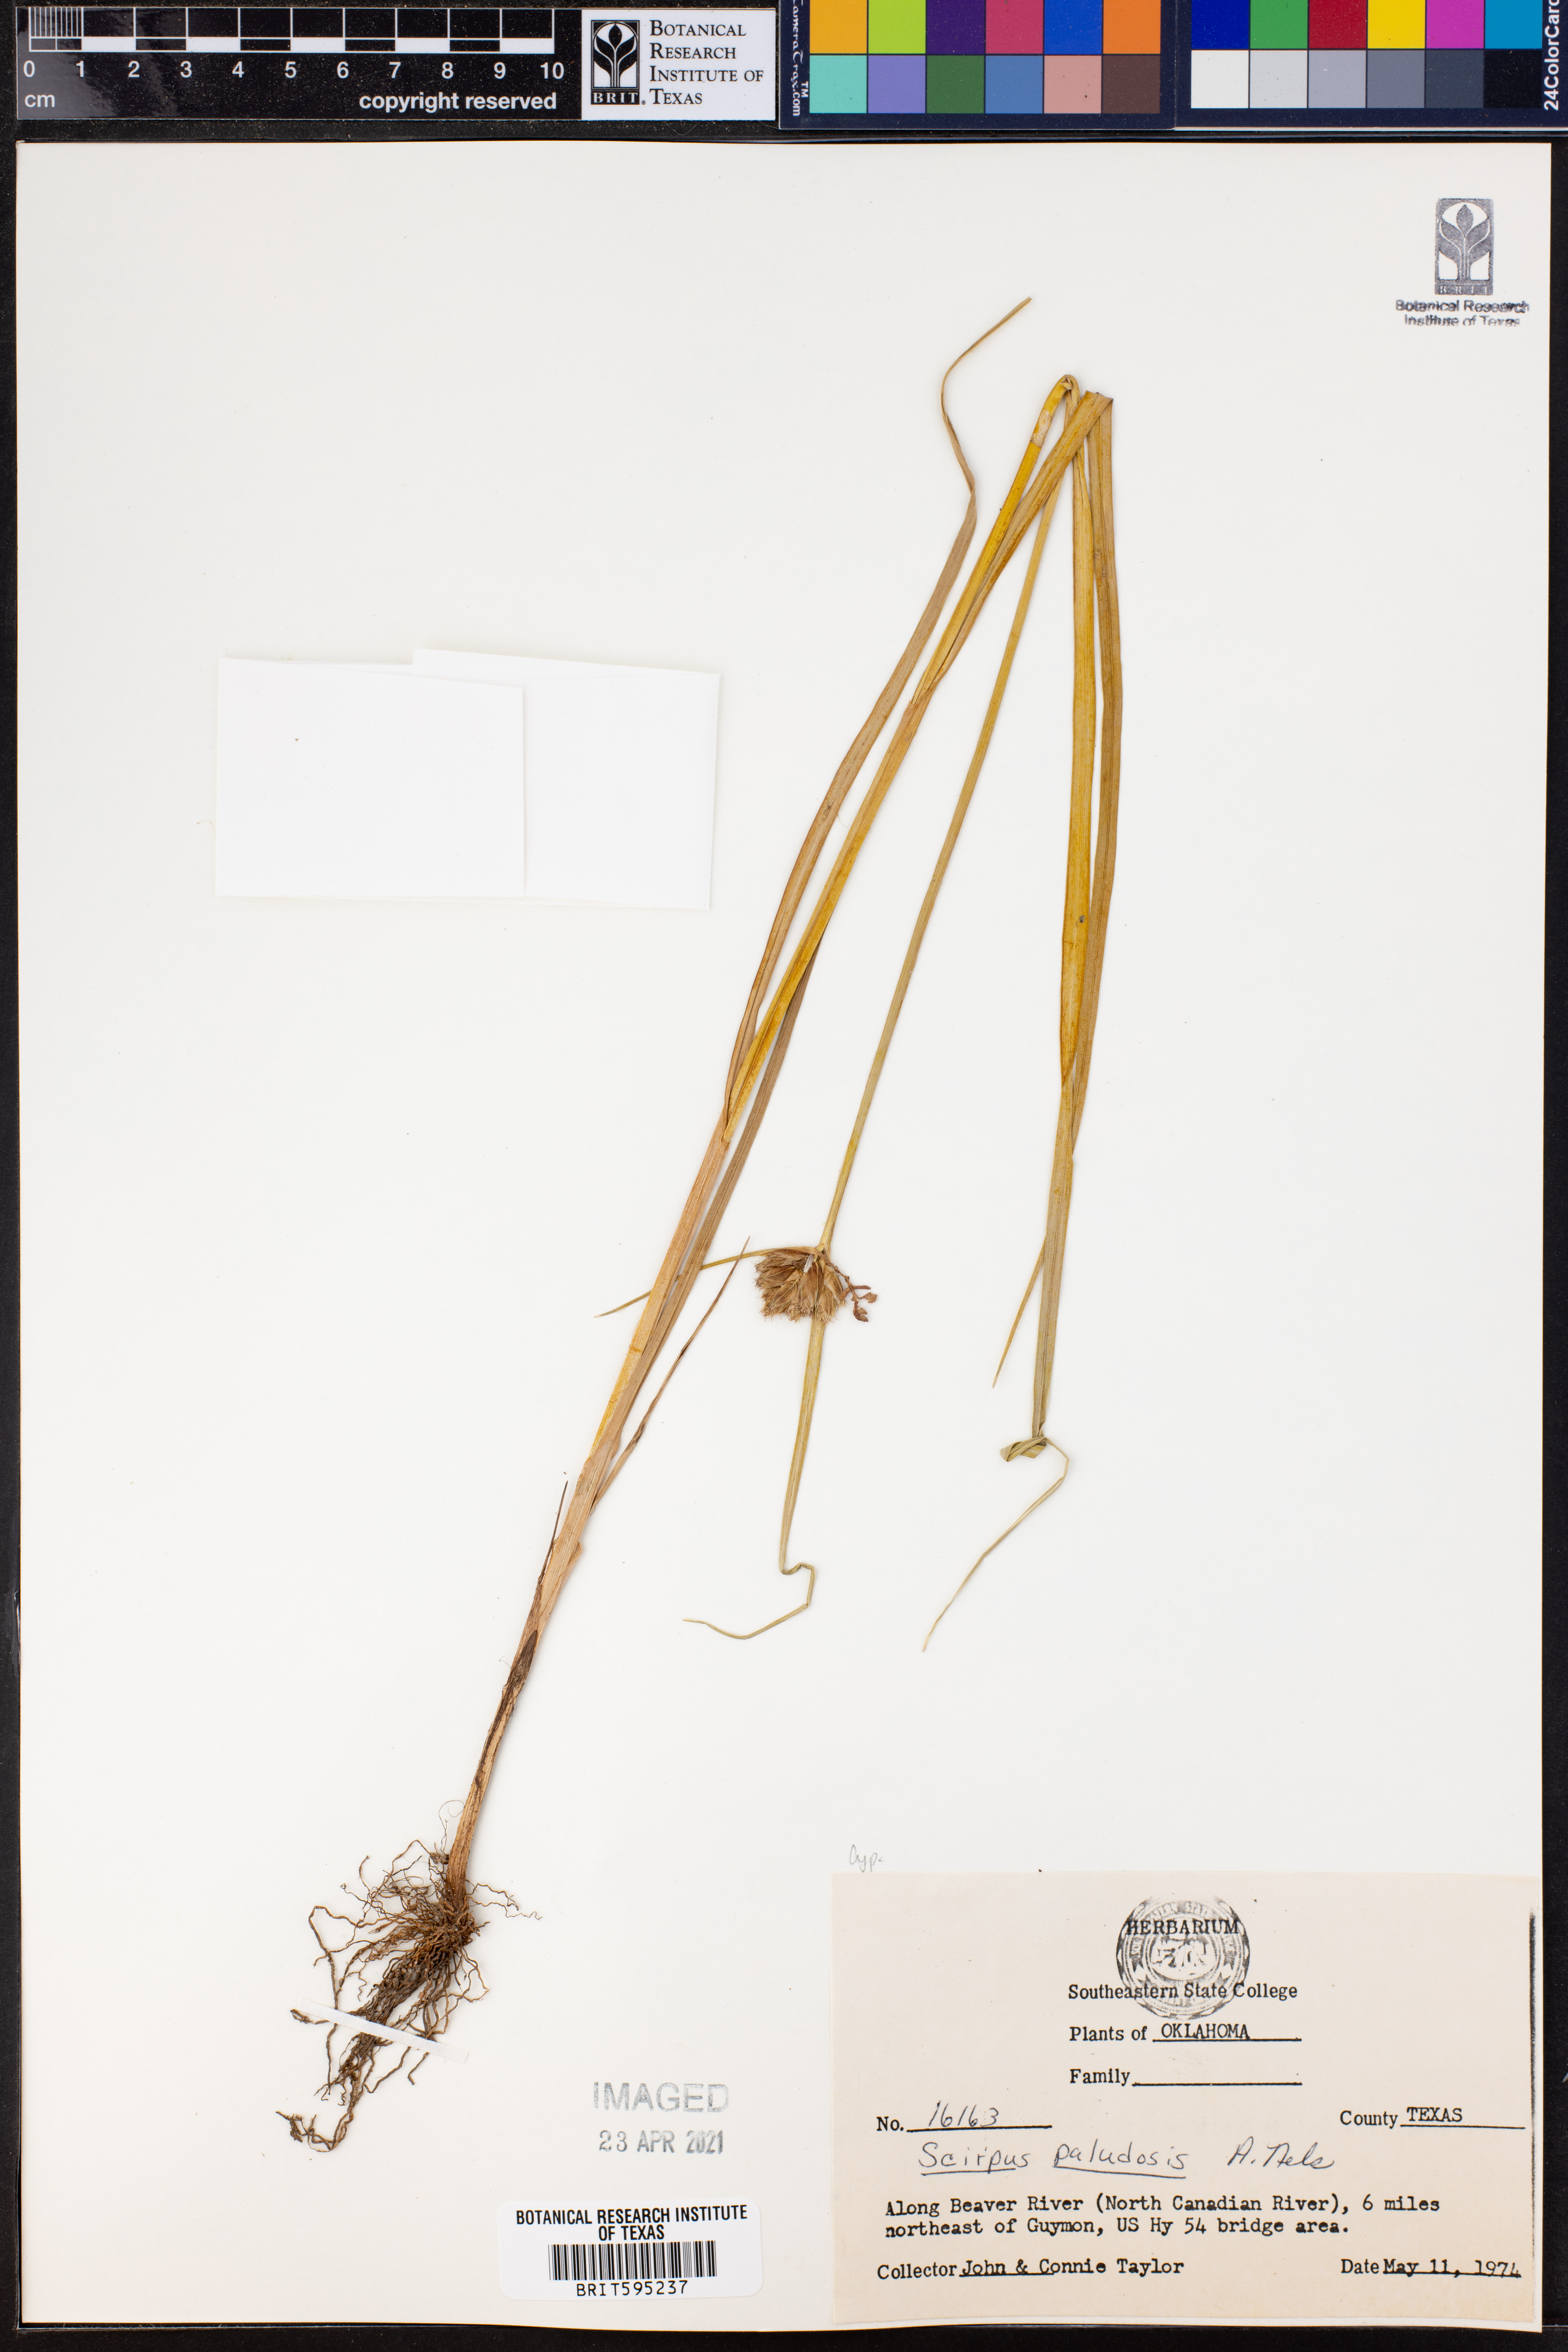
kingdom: Plantae
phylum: Tracheophyta
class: Liliopsida
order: Poales
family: Cyperaceae
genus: Bolboschoenus
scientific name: Bolboschoenus maritimus
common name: Sea club-rush
